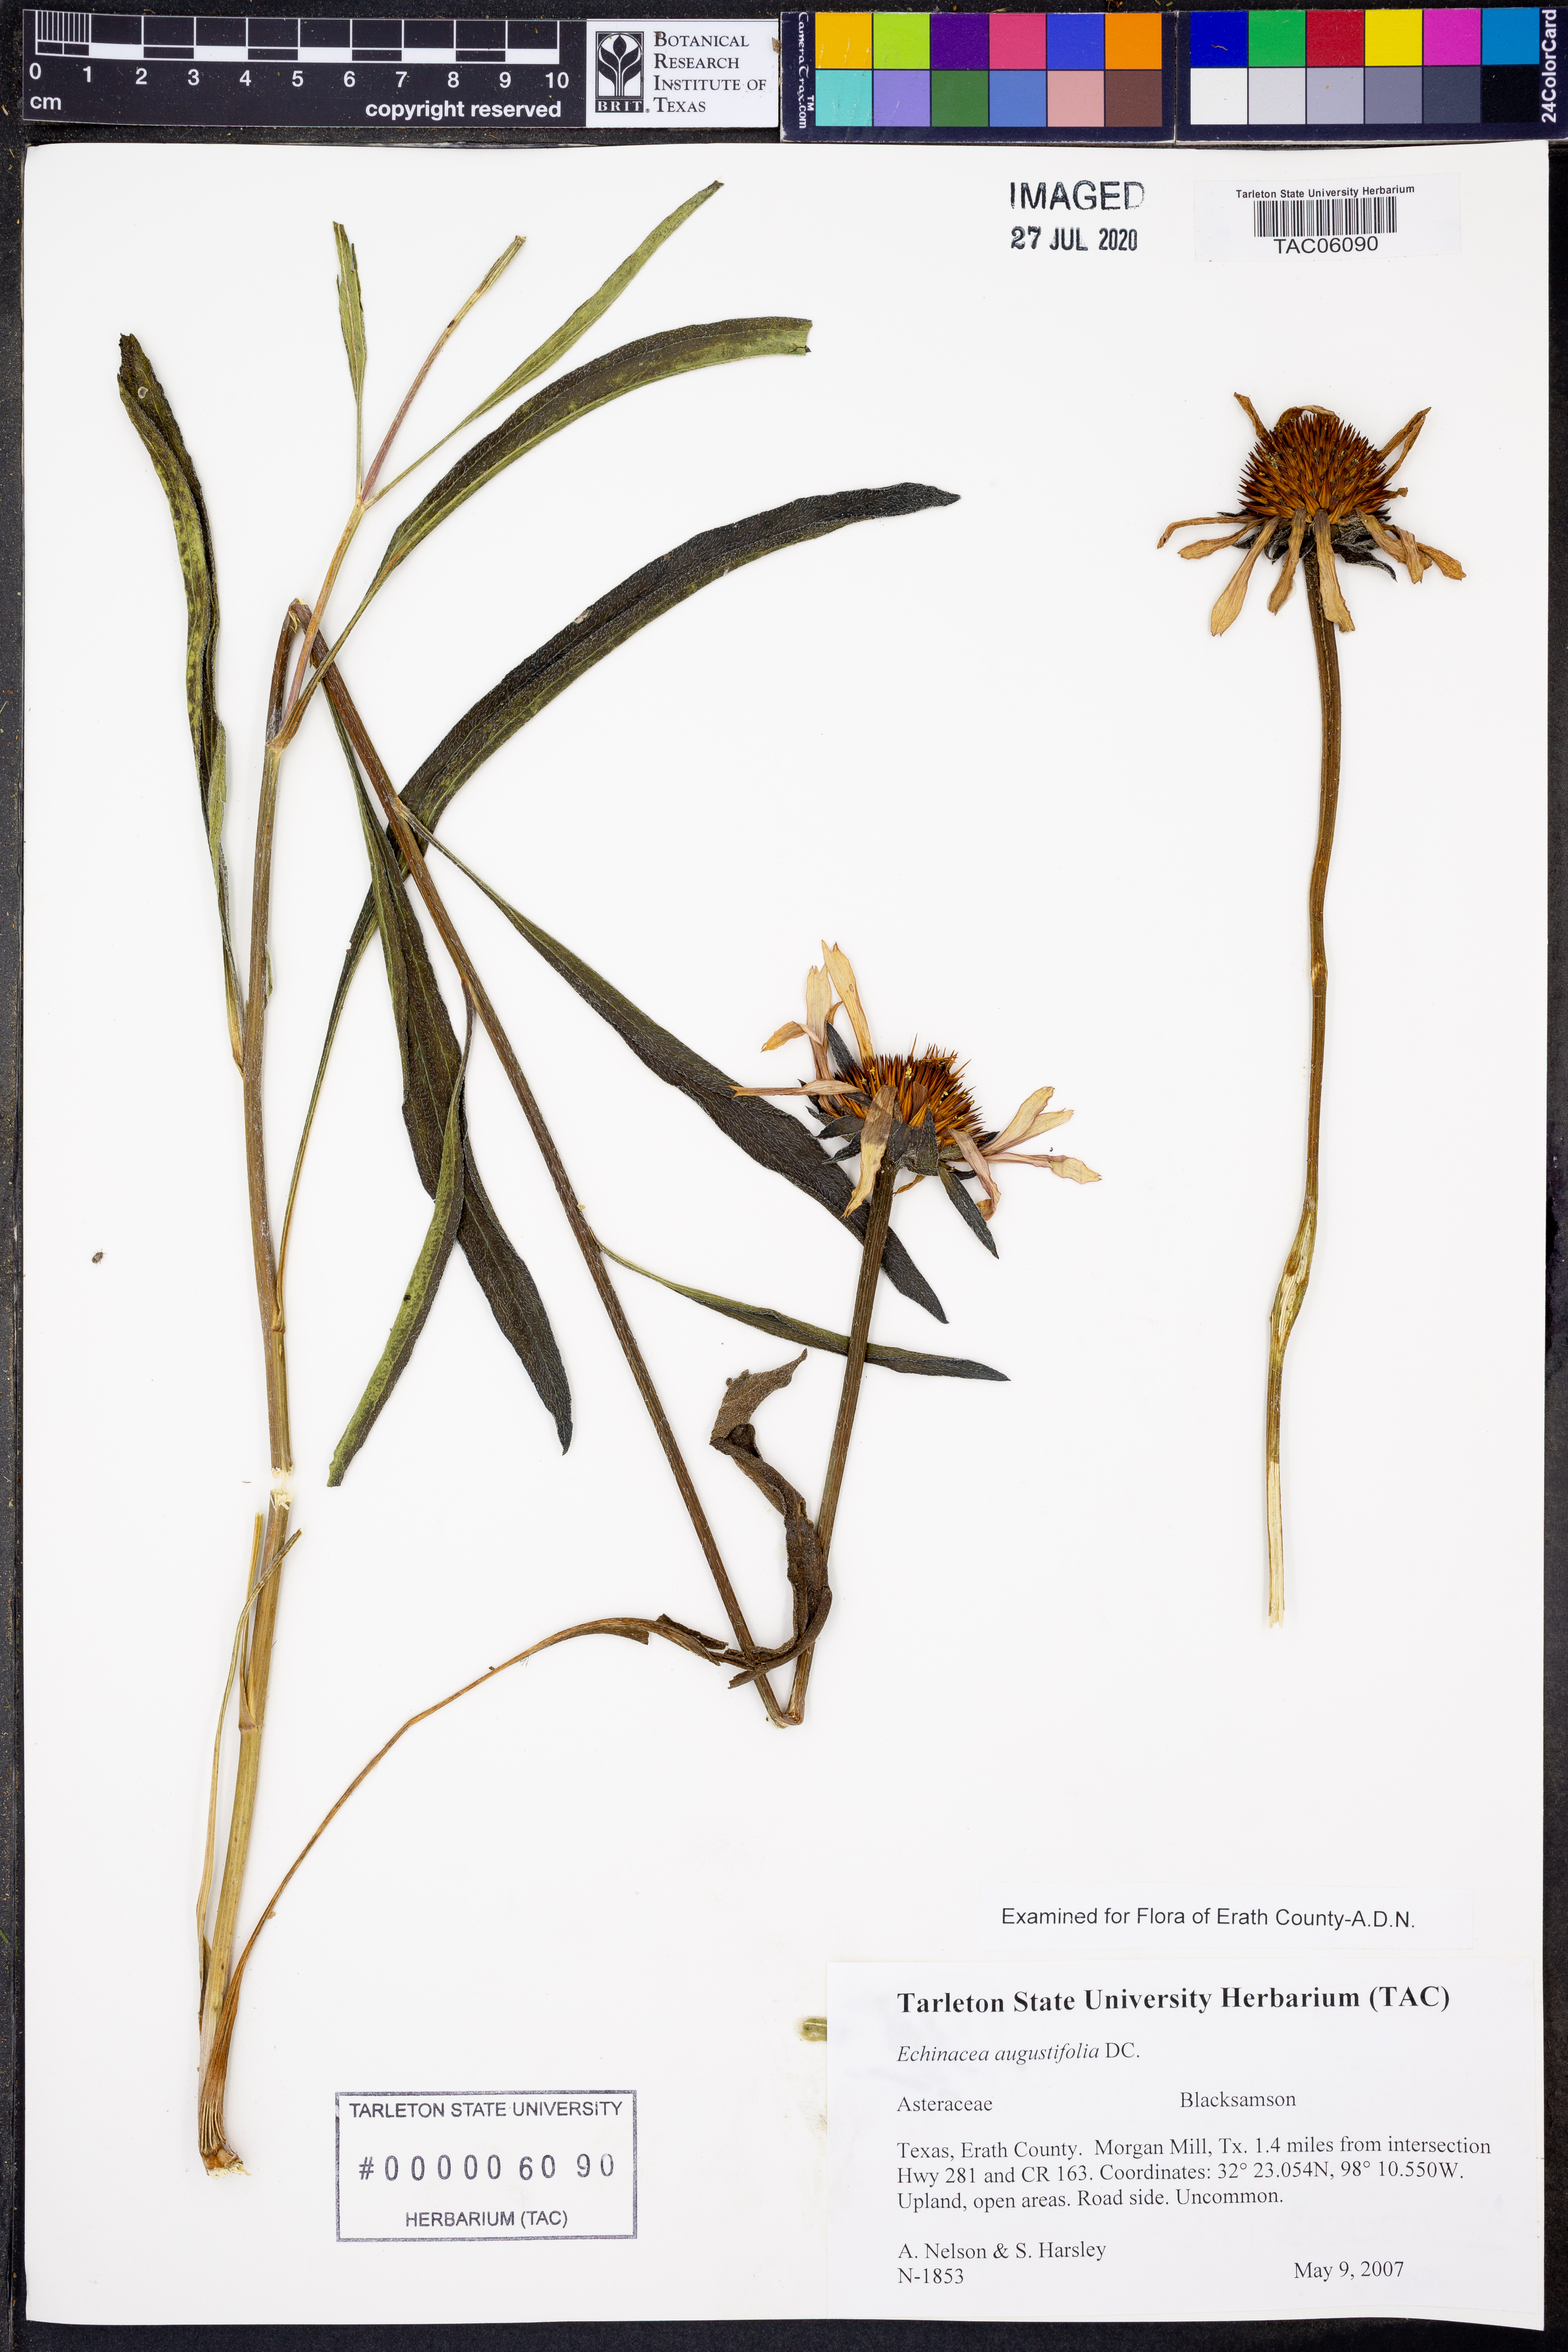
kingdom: Plantae
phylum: Tracheophyta
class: Magnoliopsida
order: Asterales
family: Asteraceae
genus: Echinacea
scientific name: Echinacea angustifolia
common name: Black-sampson echinacea
